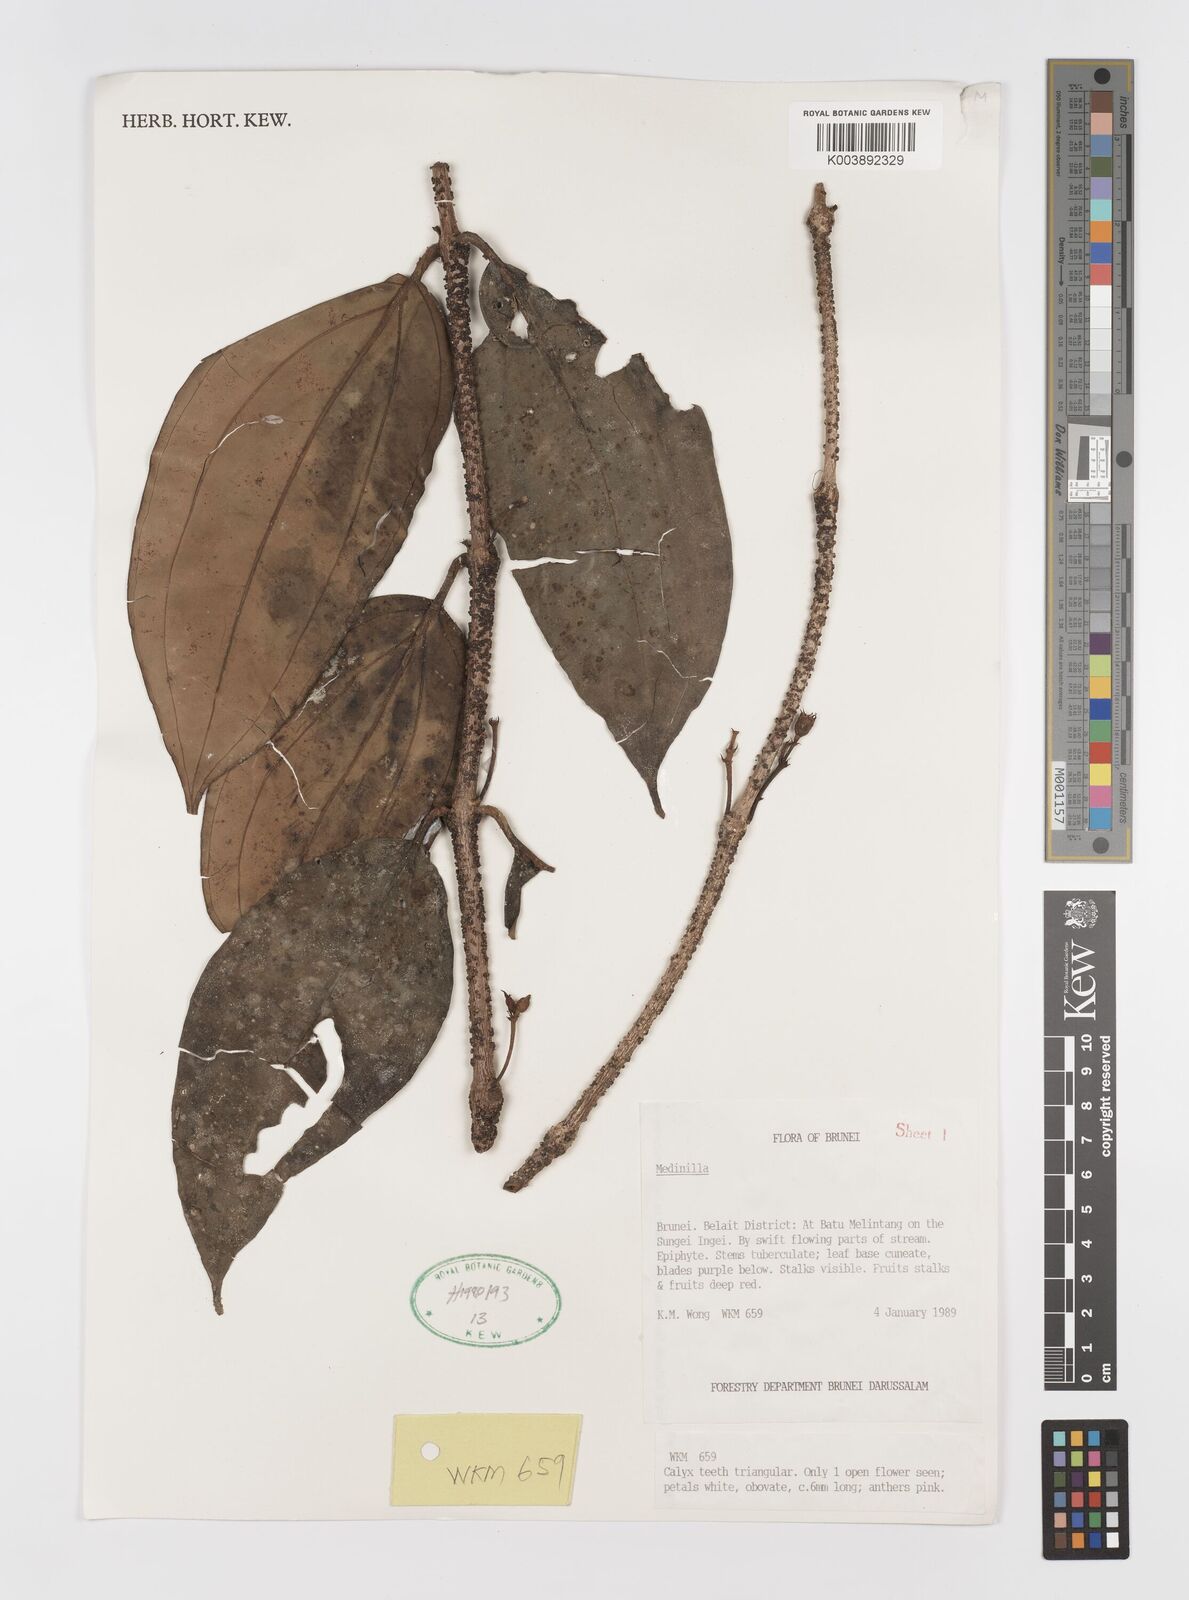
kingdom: Plantae
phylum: Tracheophyta
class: Magnoliopsida
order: Myrtales
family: Melastomataceae
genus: Medinilla
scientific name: Medinilla
